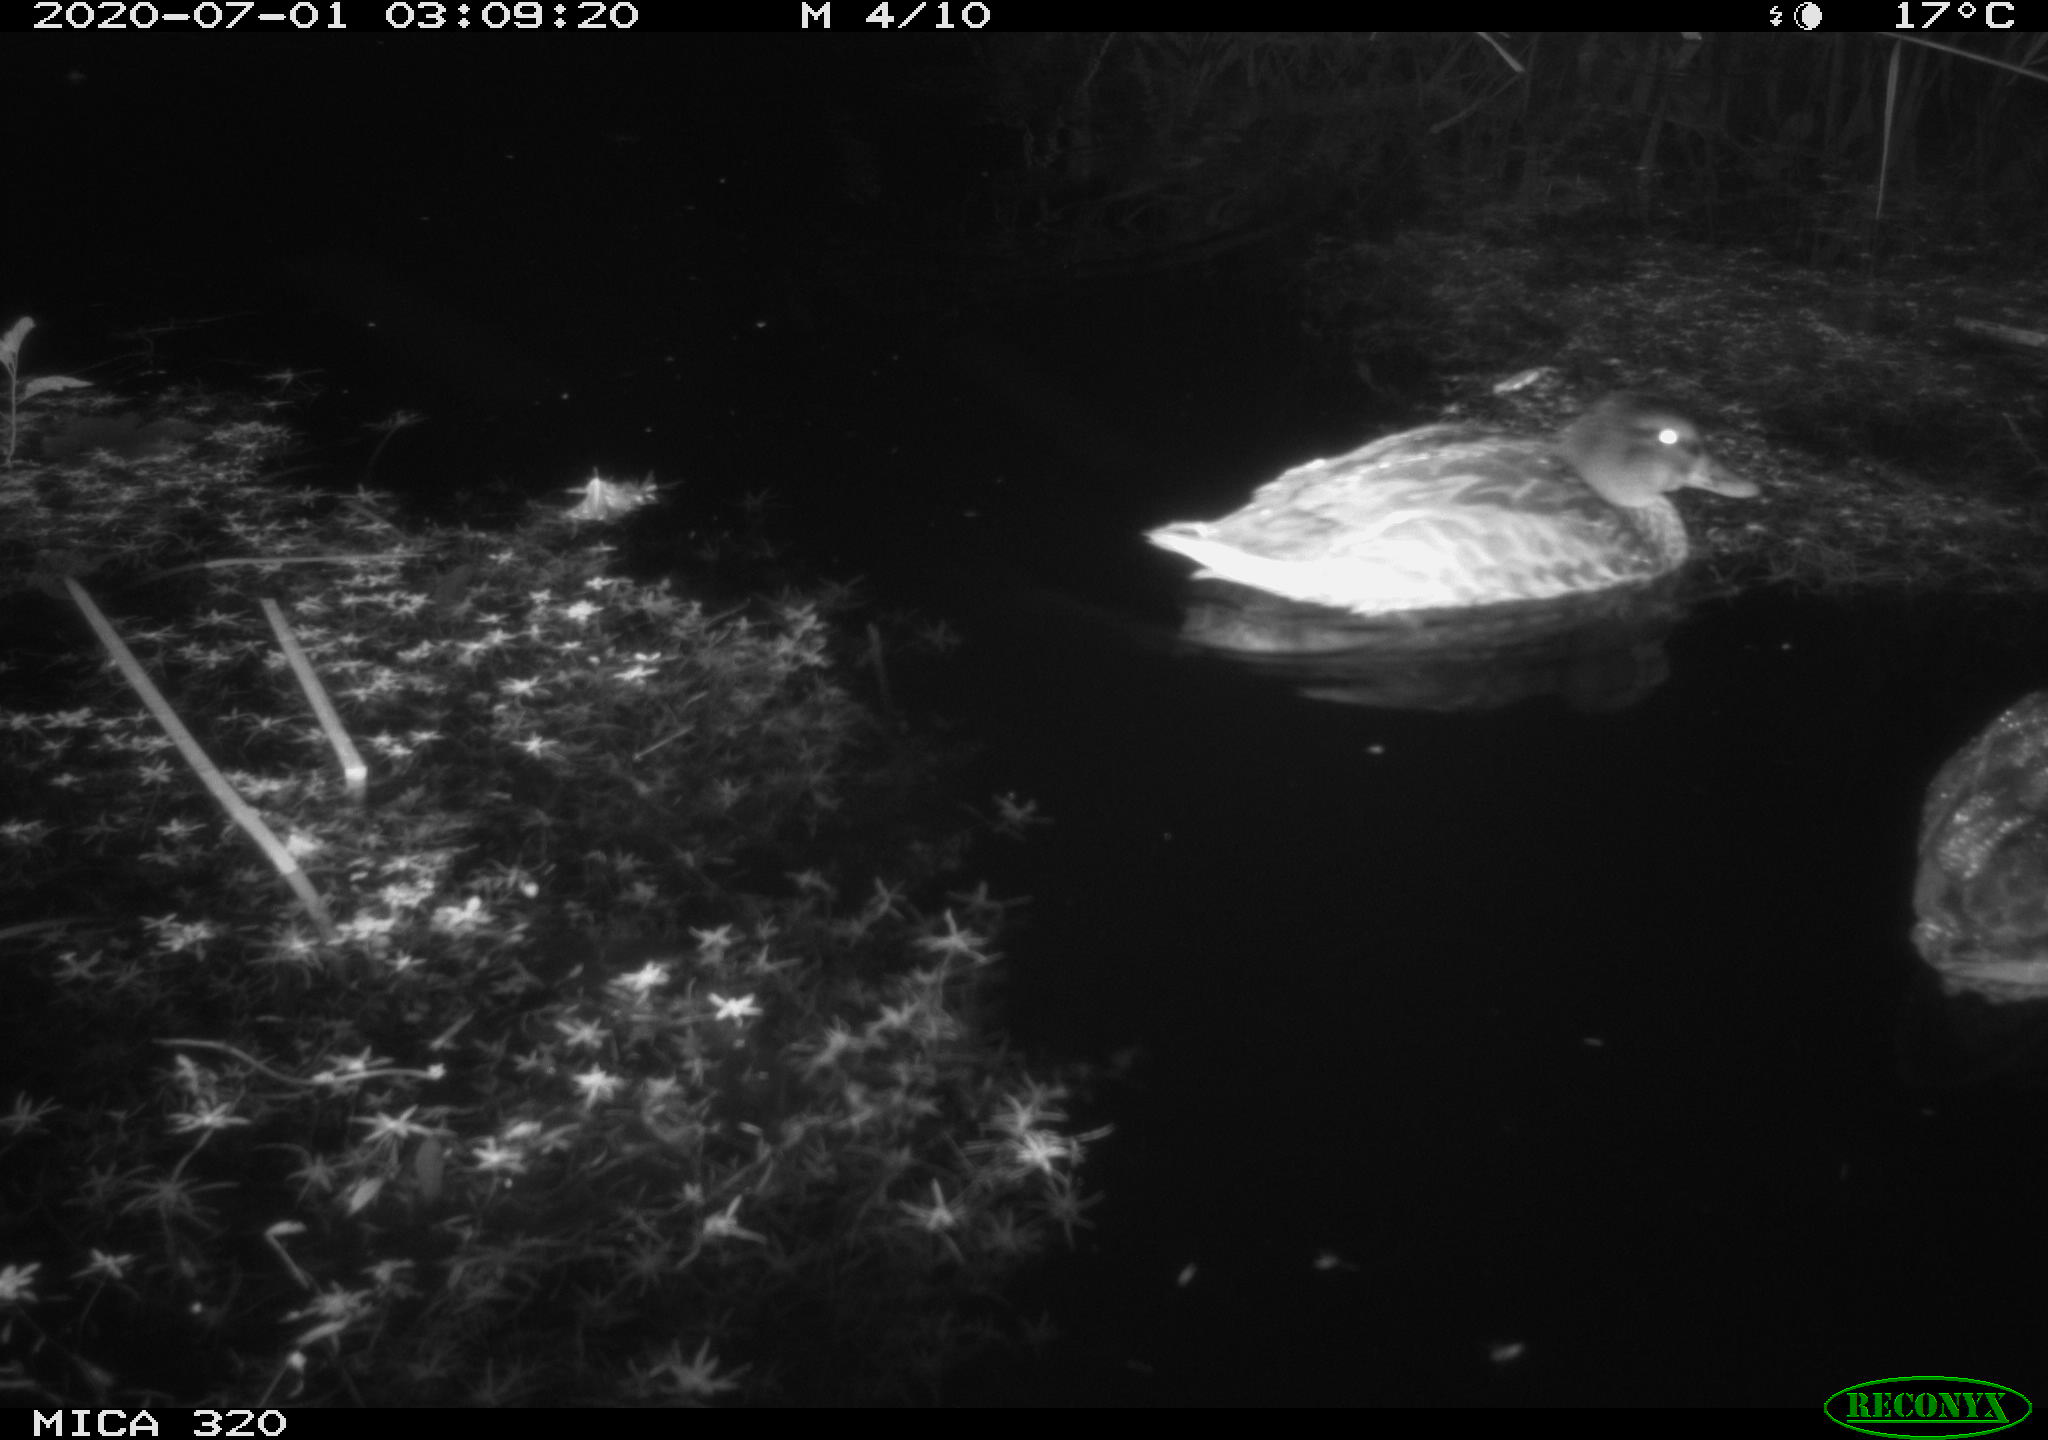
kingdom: Animalia
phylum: Chordata
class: Aves
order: Anseriformes
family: Anatidae
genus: Anas
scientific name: Anas platyrhynchos
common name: Mallard
